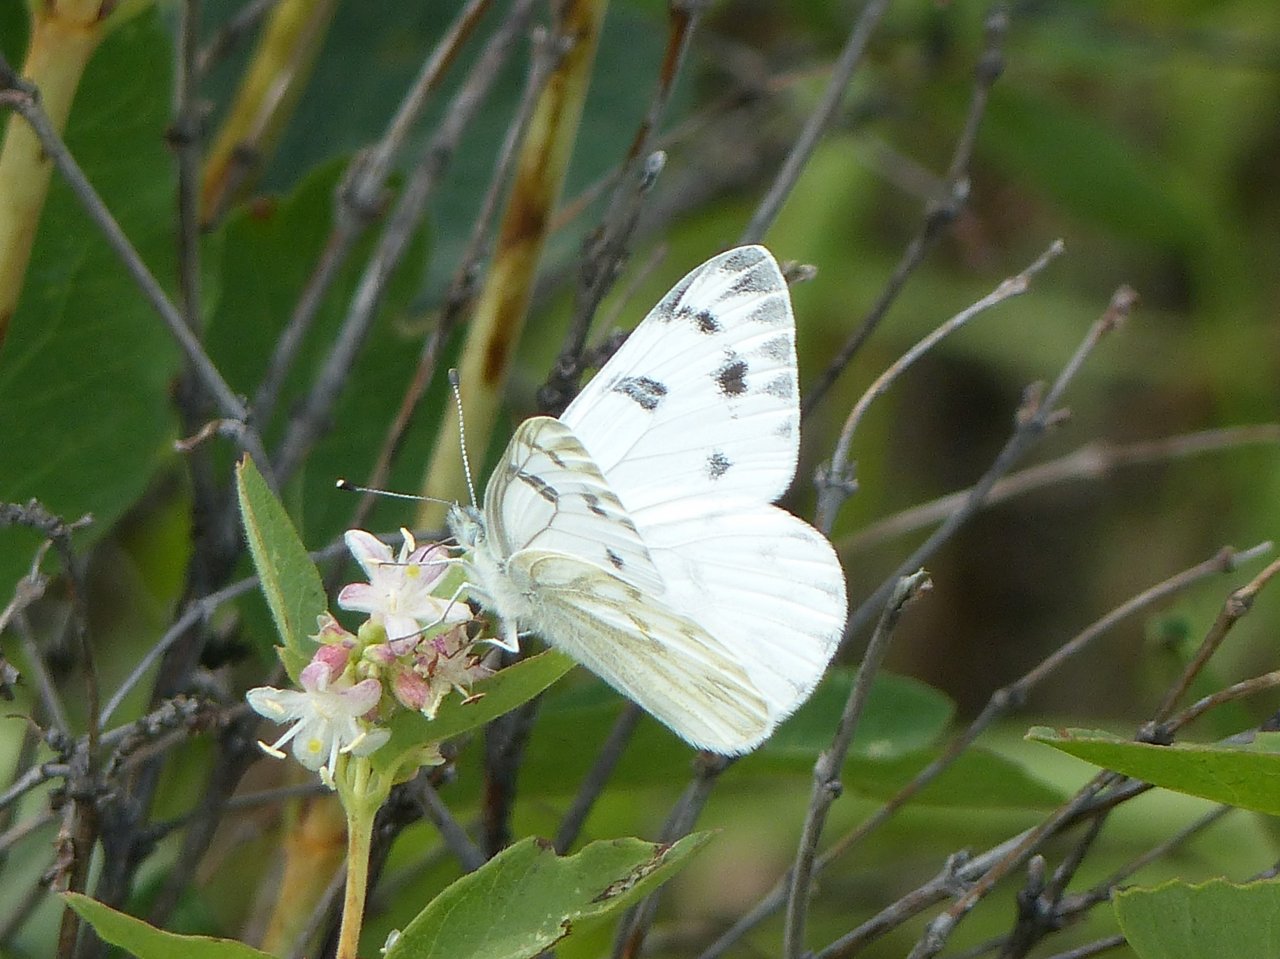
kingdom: Animalia
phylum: Arthropoda
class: Insecta
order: Lepidoptera
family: Pieridae
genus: Pontia
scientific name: Pontia occidentalis
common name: Western White
